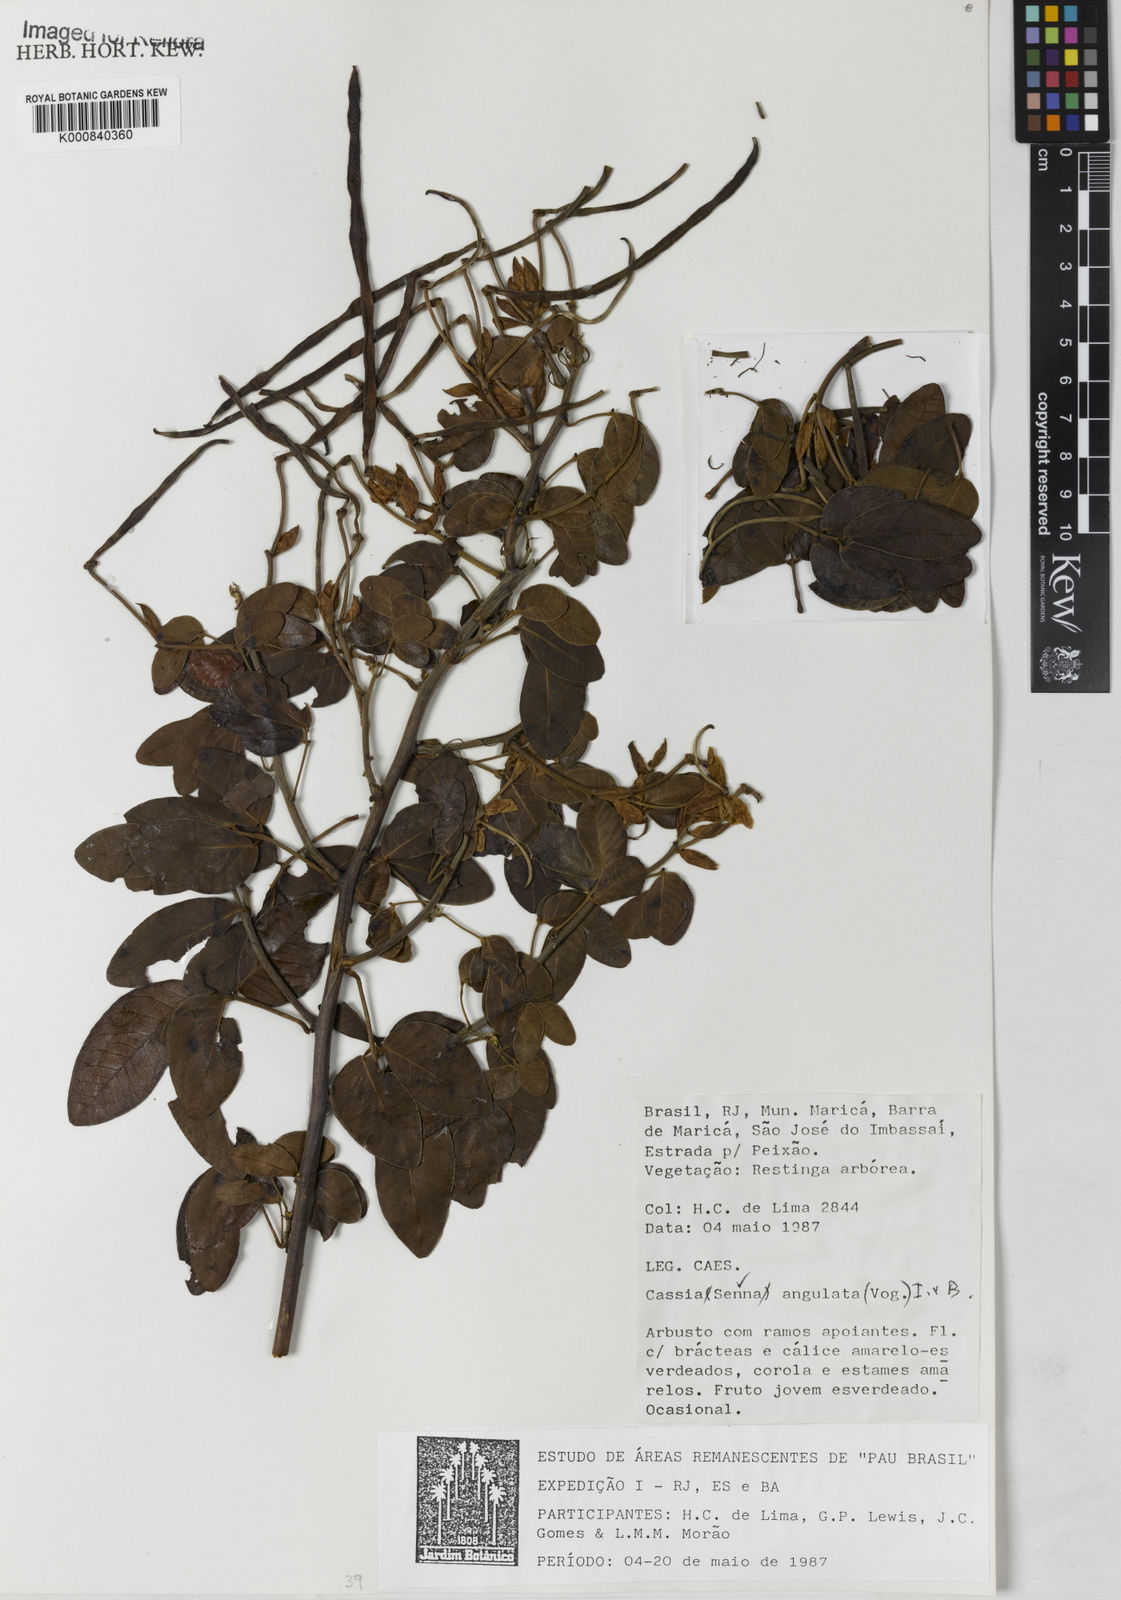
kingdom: Plantae
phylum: Tracheophyta
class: Magnoliopsida
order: Fabales
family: Fabaceae
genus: Senna
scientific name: Senna angulata
